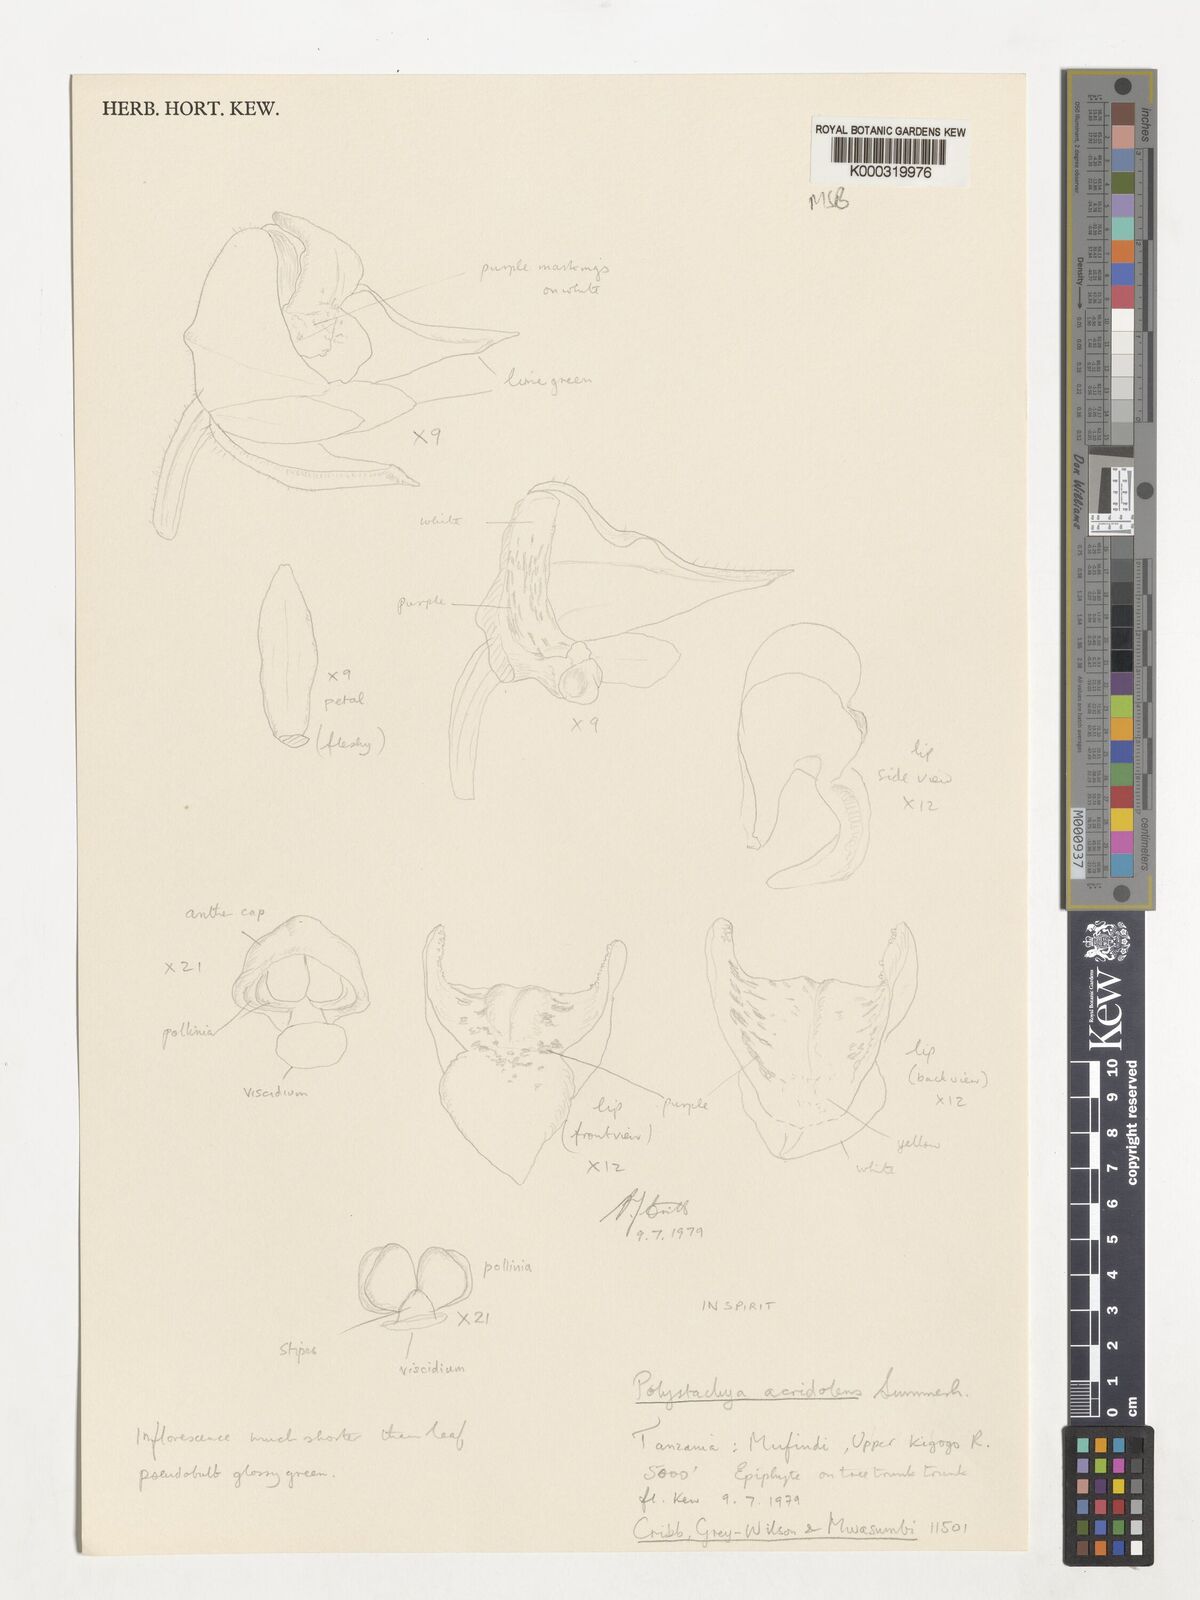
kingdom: Plantae
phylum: Tracheophyta
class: Liliopsida
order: Asparagales
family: Orchidaceae
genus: Polystachya
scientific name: Polystachya acridolens
